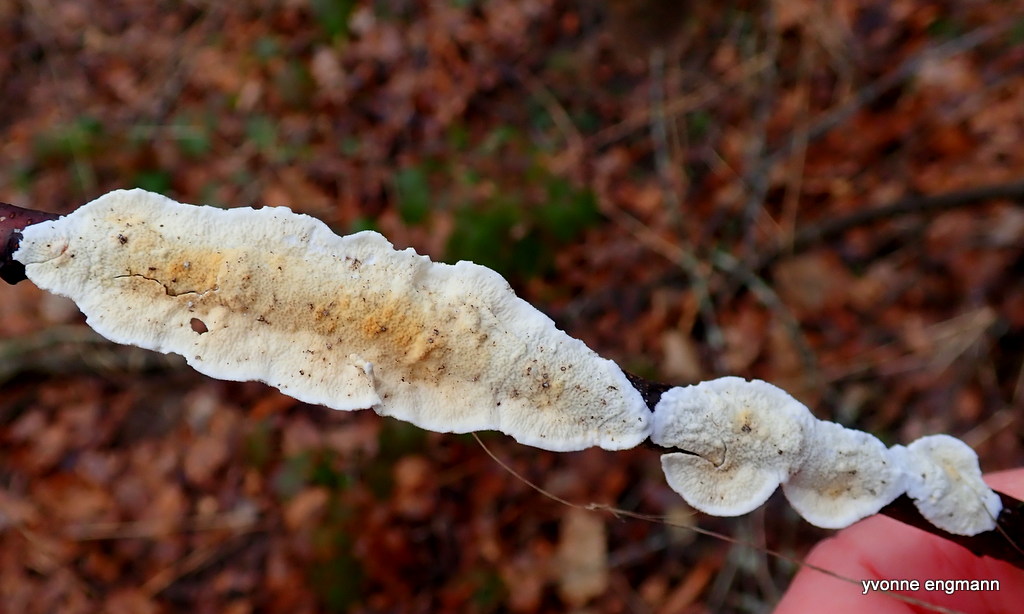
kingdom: Fungi
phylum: Basidiomycota
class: Agaricomycetes
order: Polyporales
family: Irpicaceae
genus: Byssomerulius
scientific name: Byssomerulius corium
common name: læder-åresvamp
